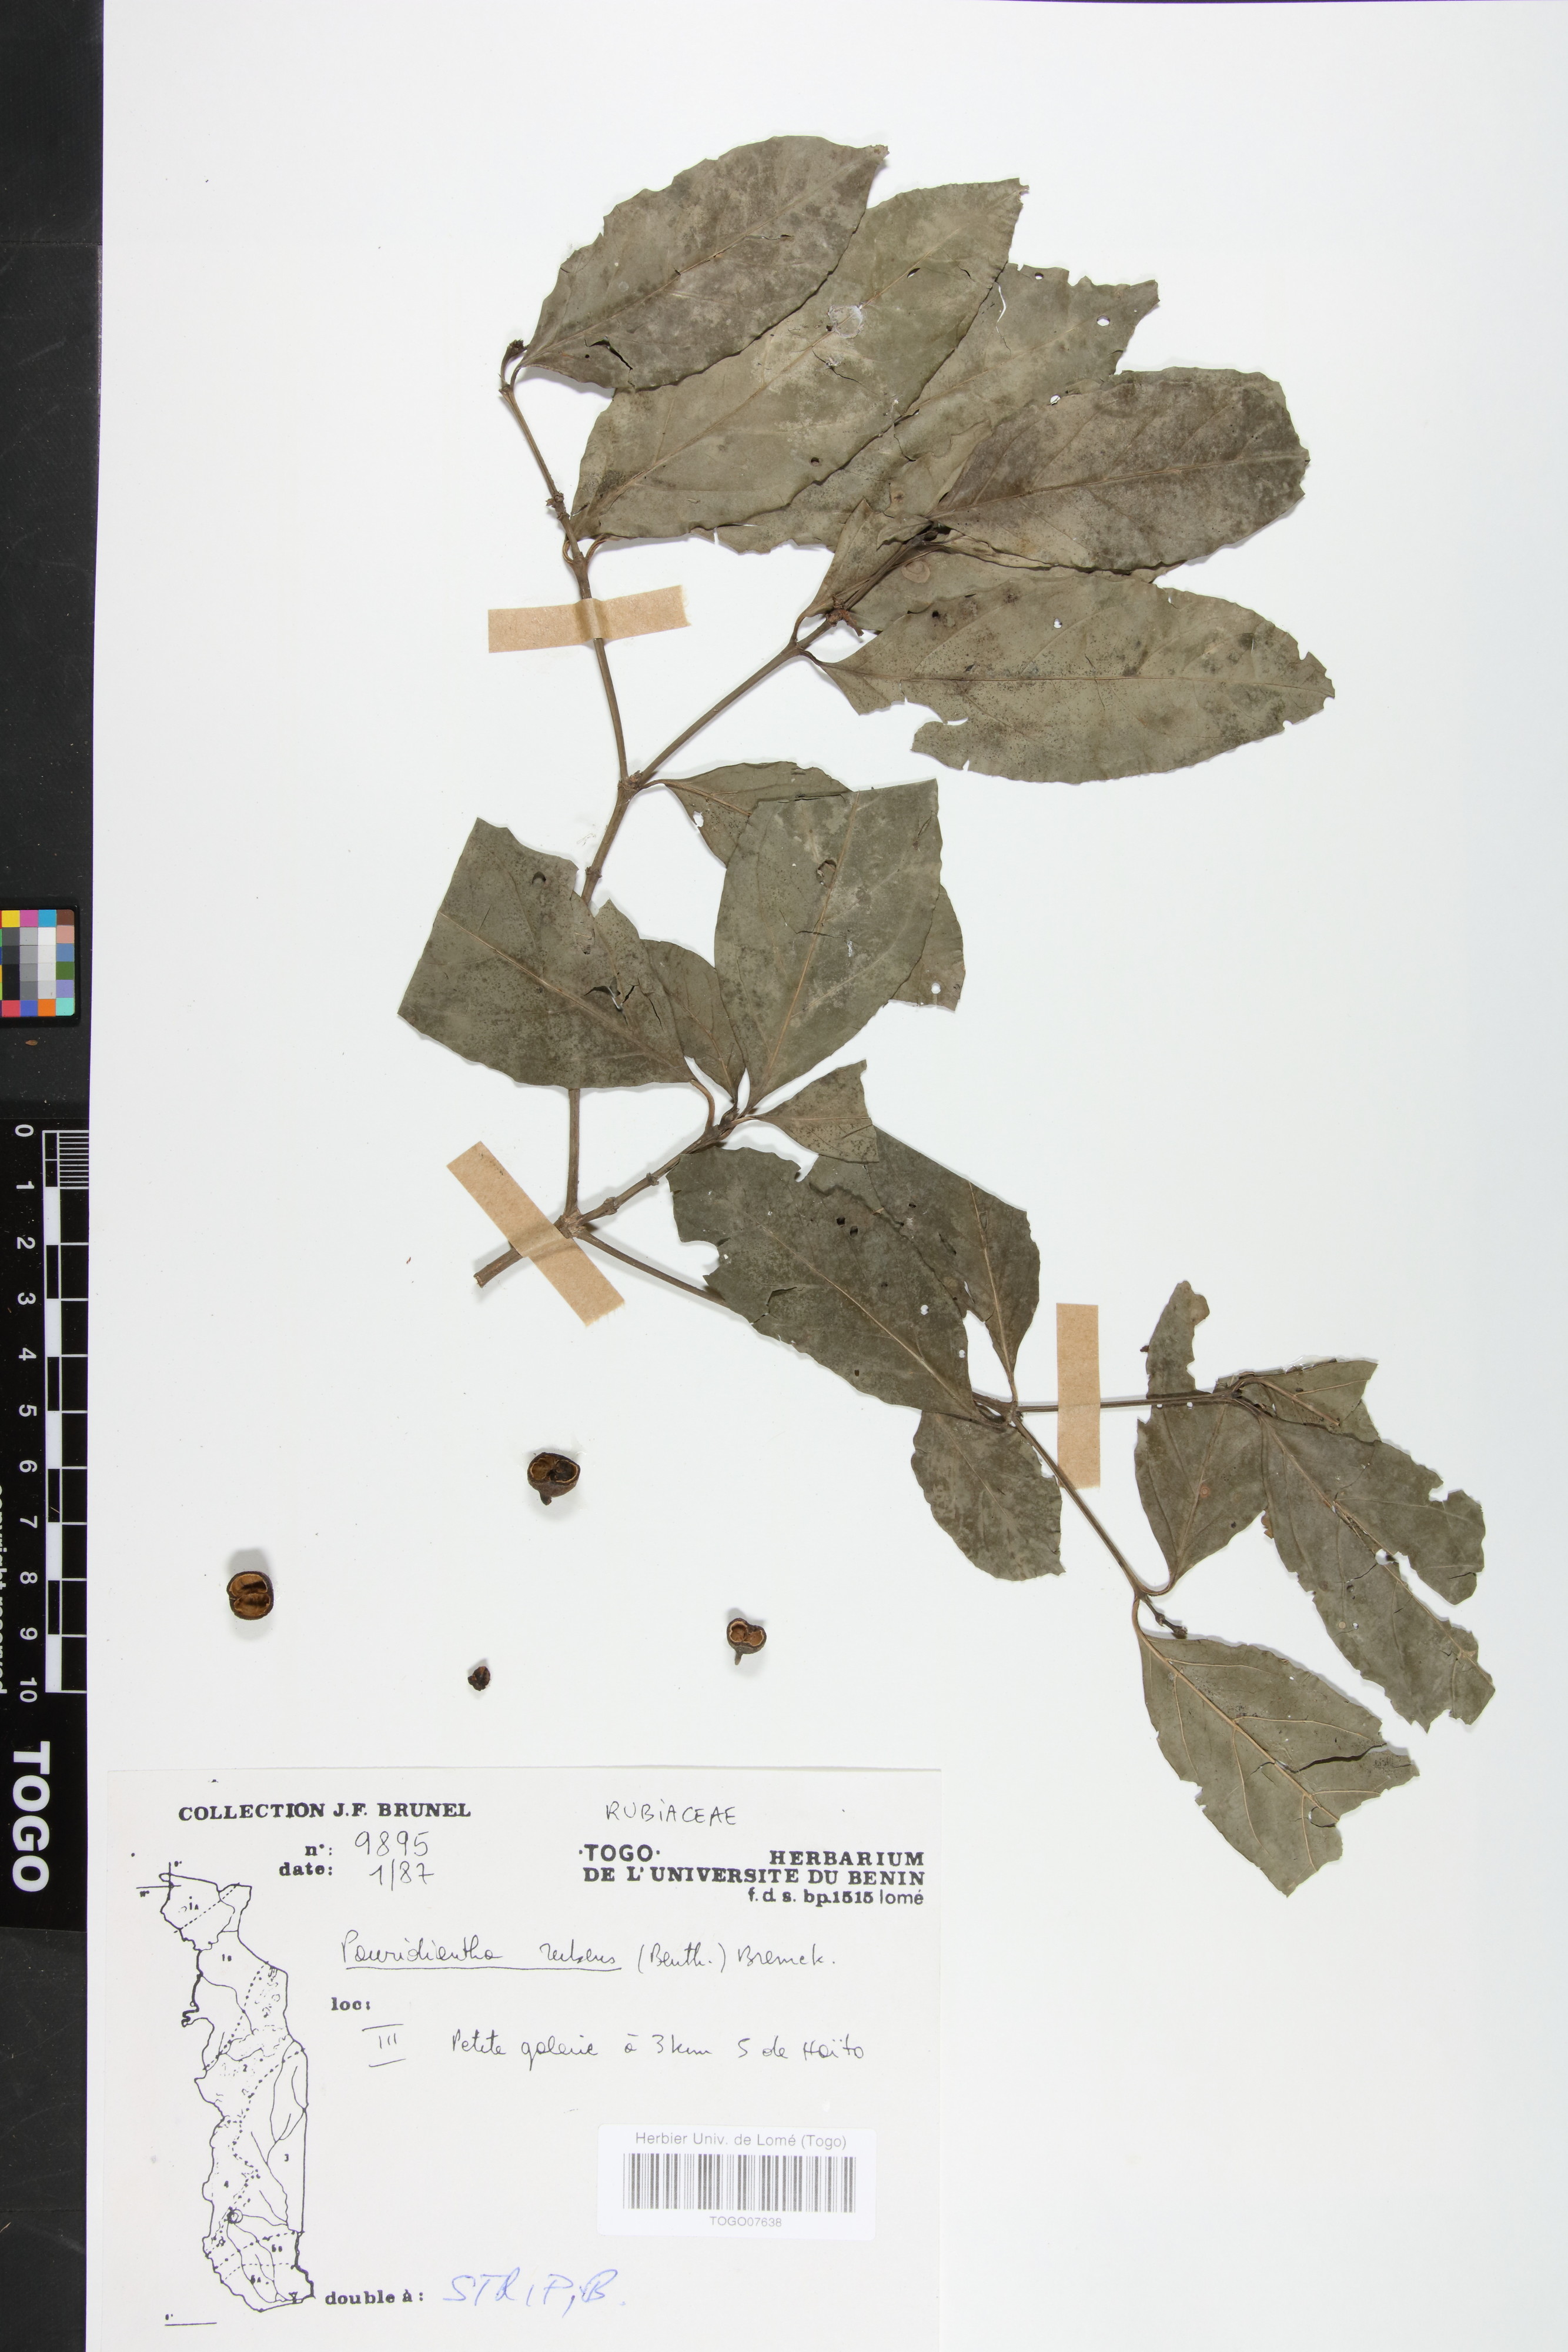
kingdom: Plantae
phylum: Tracheophyta
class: Magnoliopsida
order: Gentianales
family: Rubiaceae
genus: Pauridiantha
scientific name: Pauridiantha rubens
